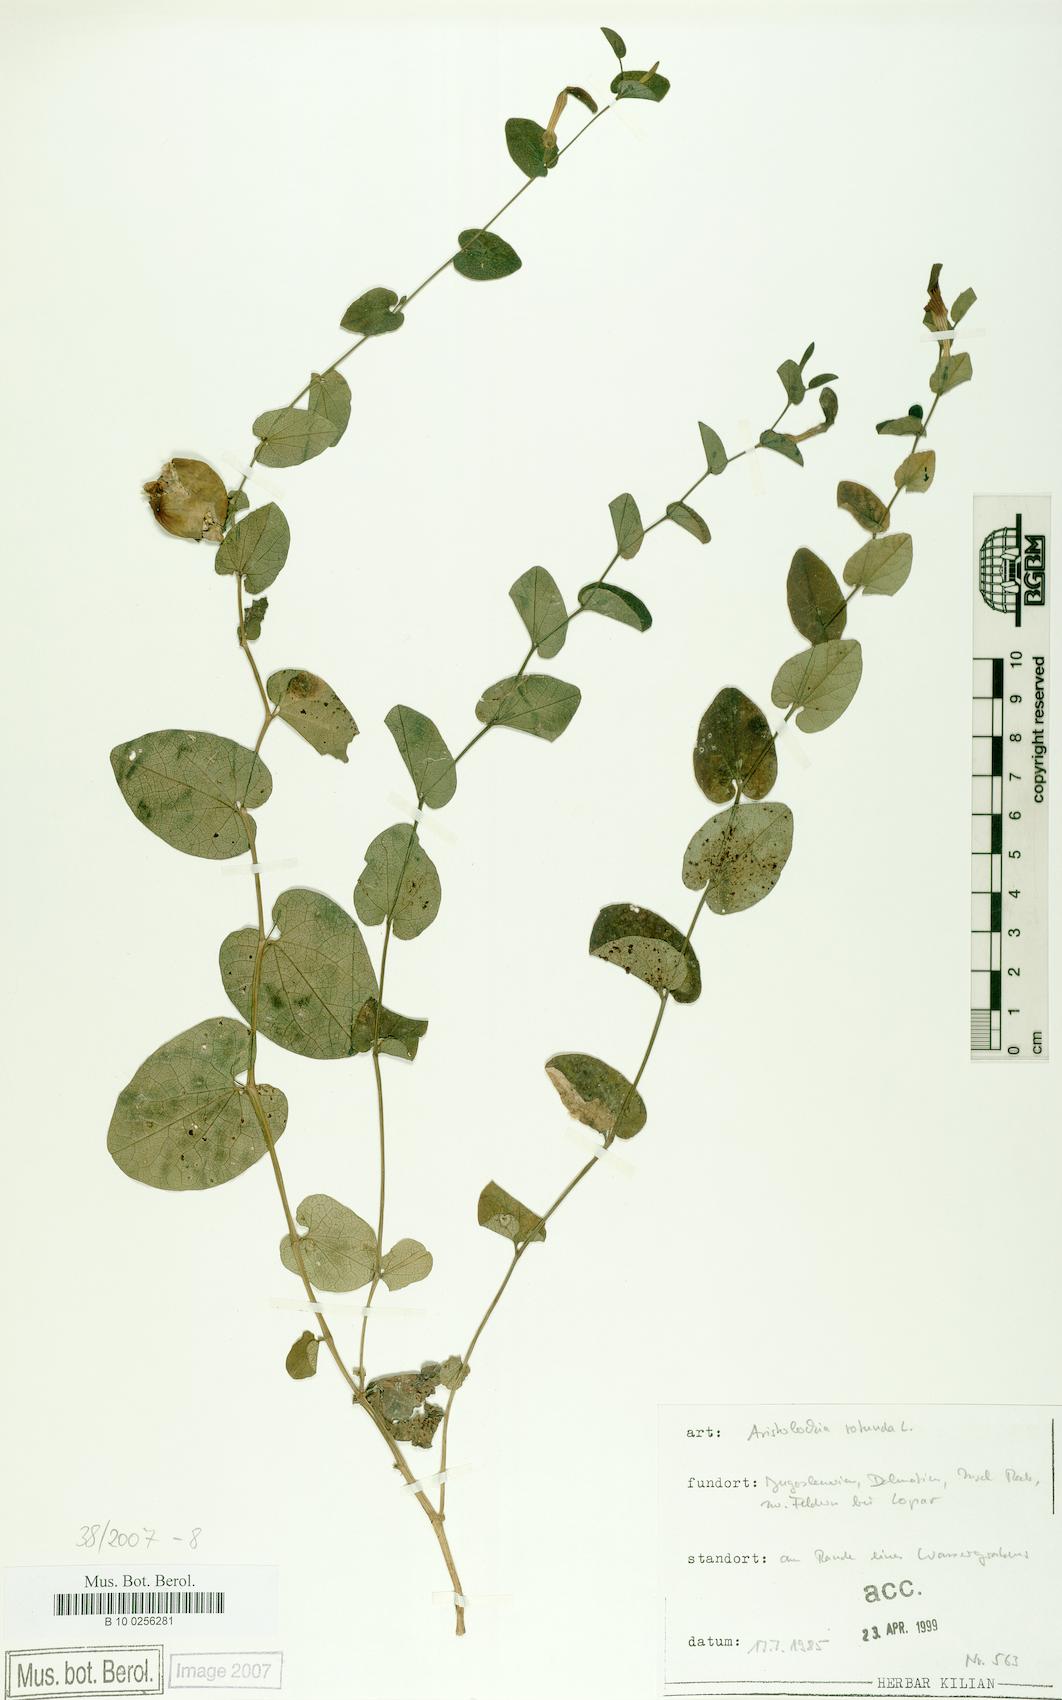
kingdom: Plantae
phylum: Tracheophyta
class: Magnoliopsida
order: Piperales
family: Aristolochiaceae
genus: Aristolochia
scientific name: Aristolochia rotunda
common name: Smearwort
